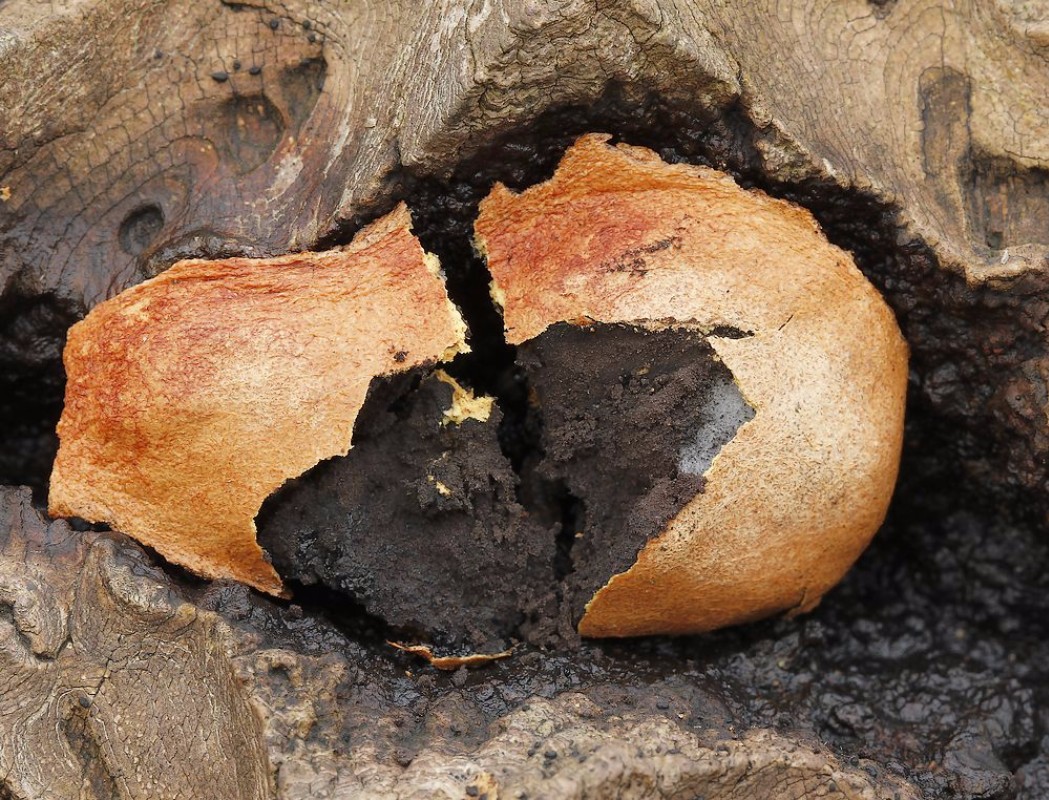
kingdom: Protozoa
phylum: Mycetozoa
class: Myxomycetes
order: Physarales
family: Physaraceae
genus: Fuligo
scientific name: Fuligo leviderma
